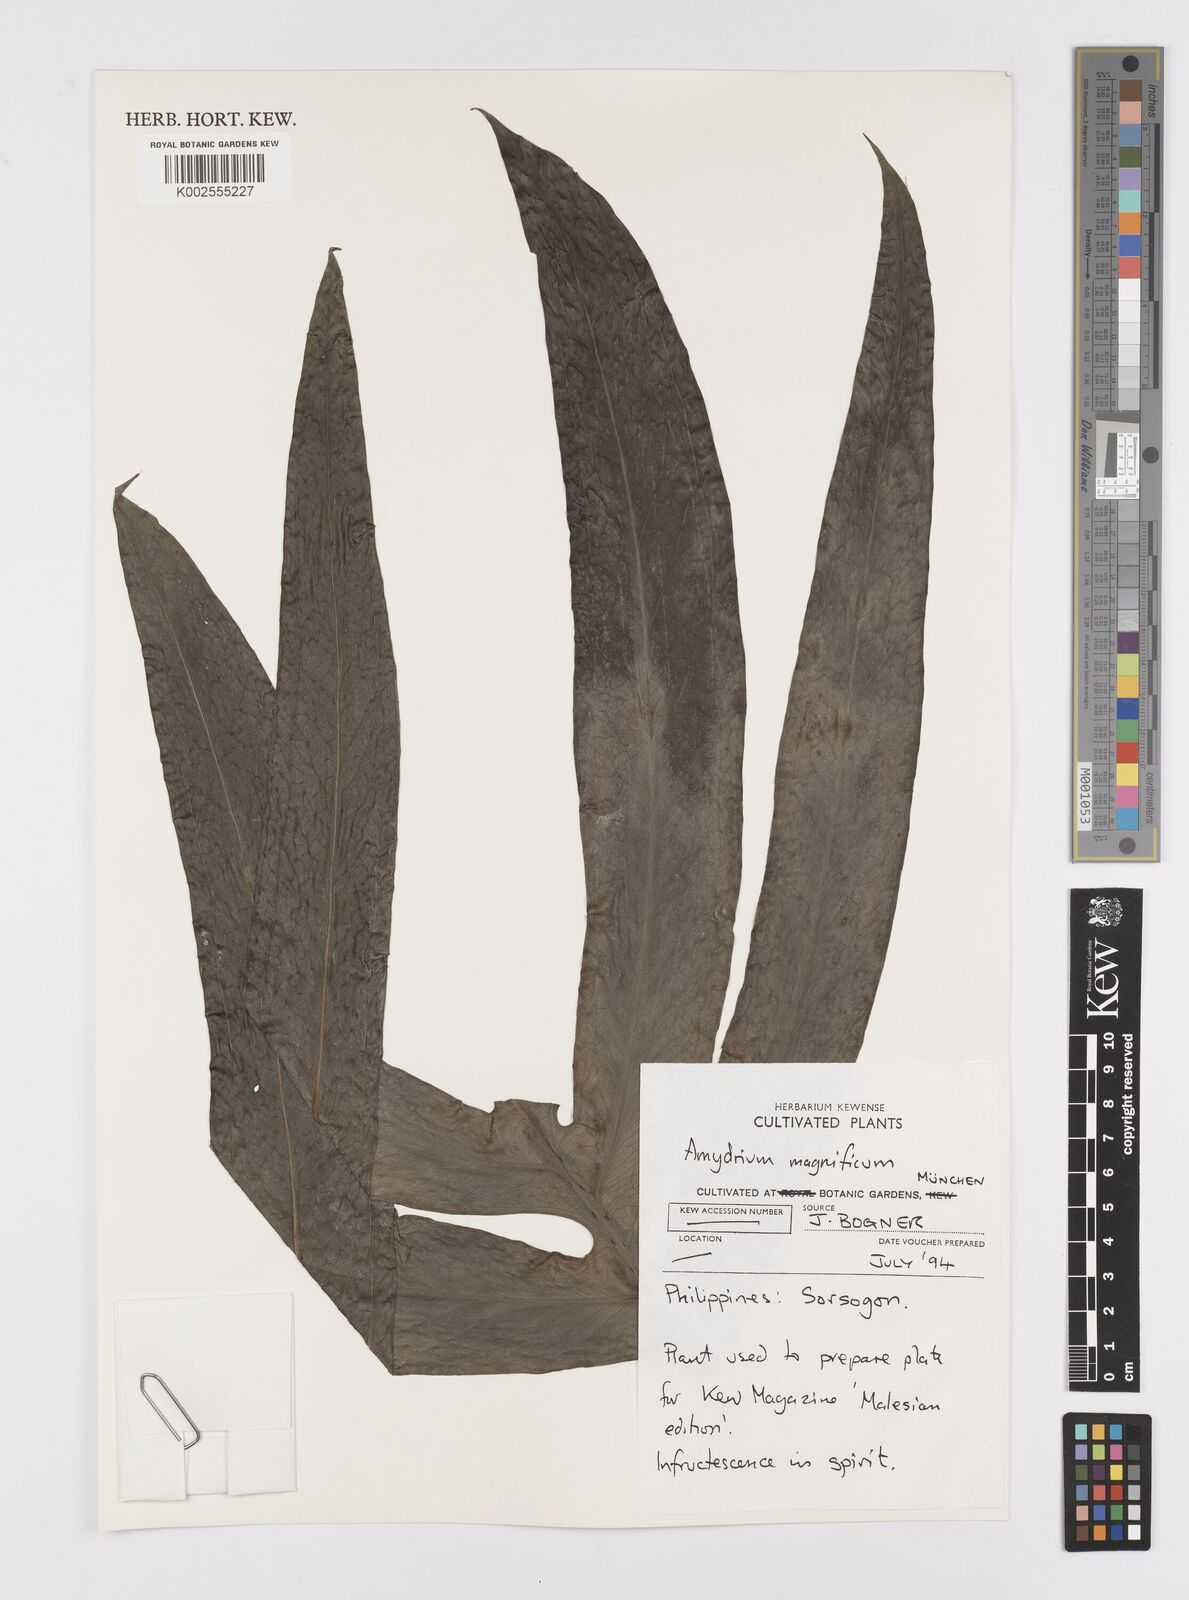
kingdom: Plantae
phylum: Tracheophyta
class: Liliopsida
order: Alismatales
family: Araceae
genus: Amydrium
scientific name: Amydrium zippelianum
